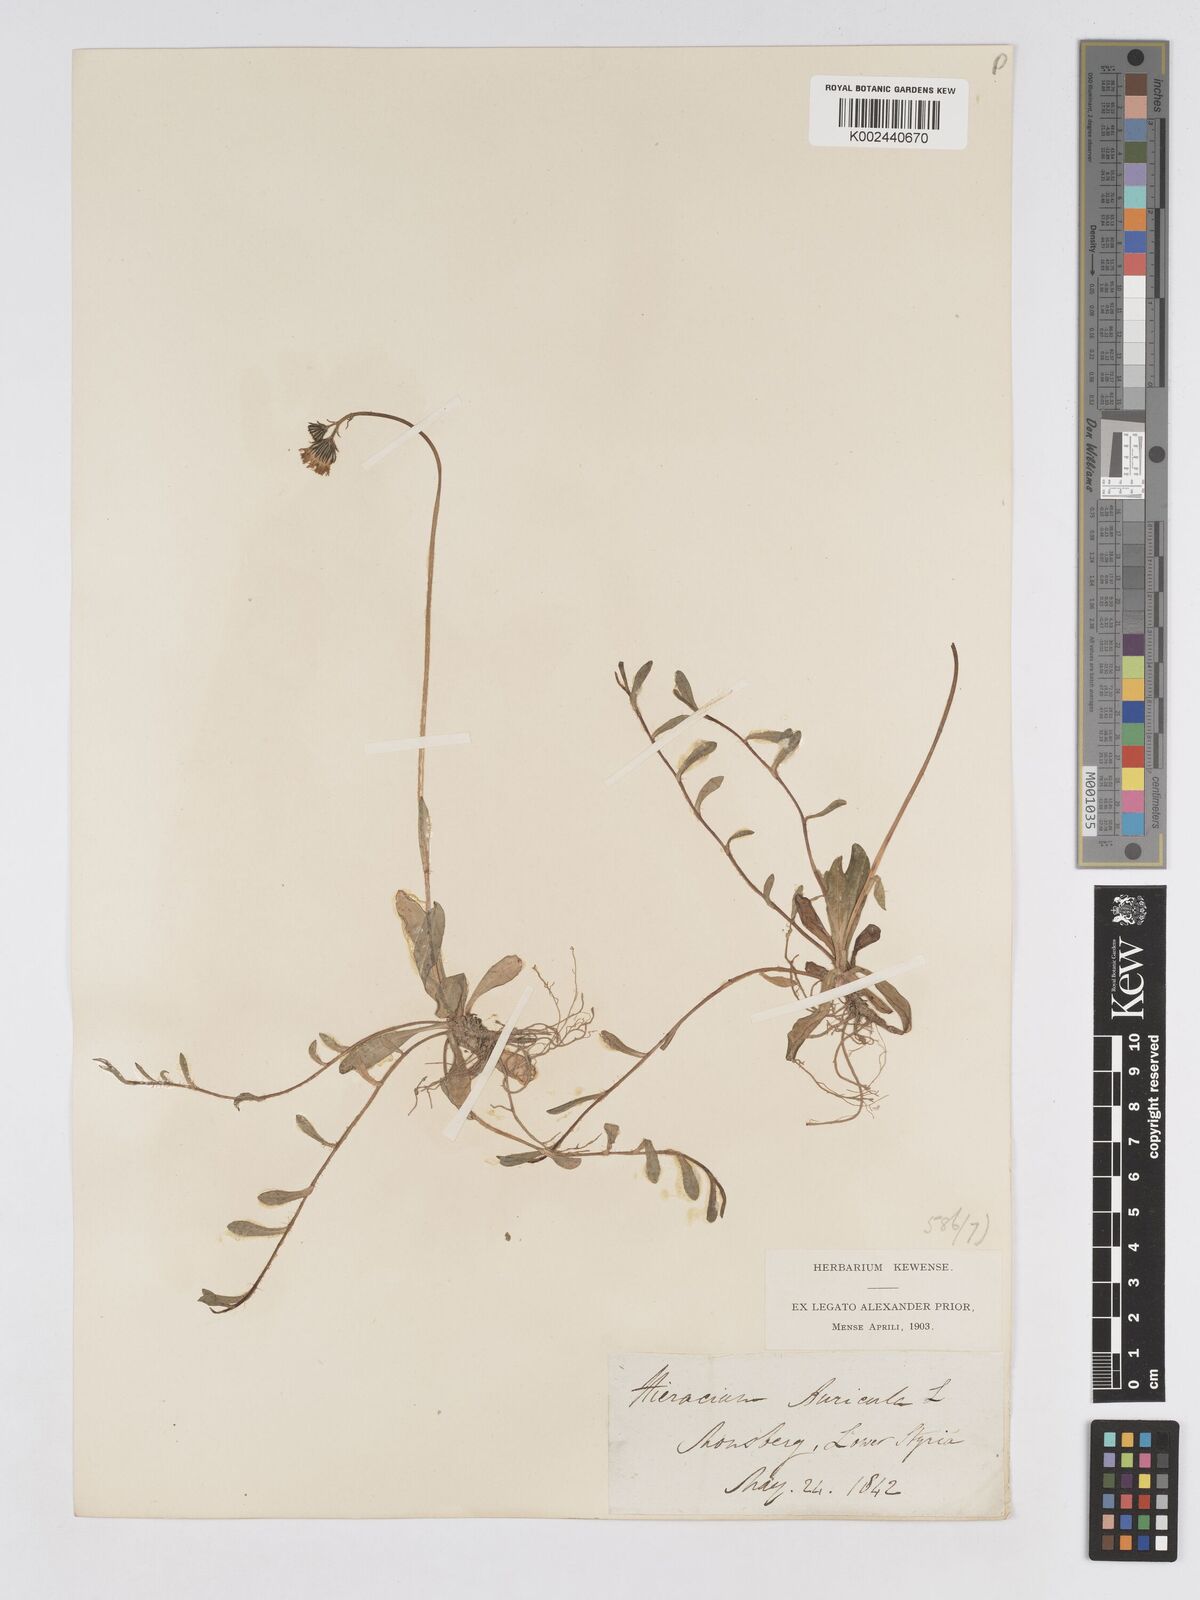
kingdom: Plantae
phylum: Tracheophyta
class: Magnoliopsida
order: Asterales
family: Asteraceae
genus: Pilosella
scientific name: Pilosella floribunda
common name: Glaucous hawkweed
